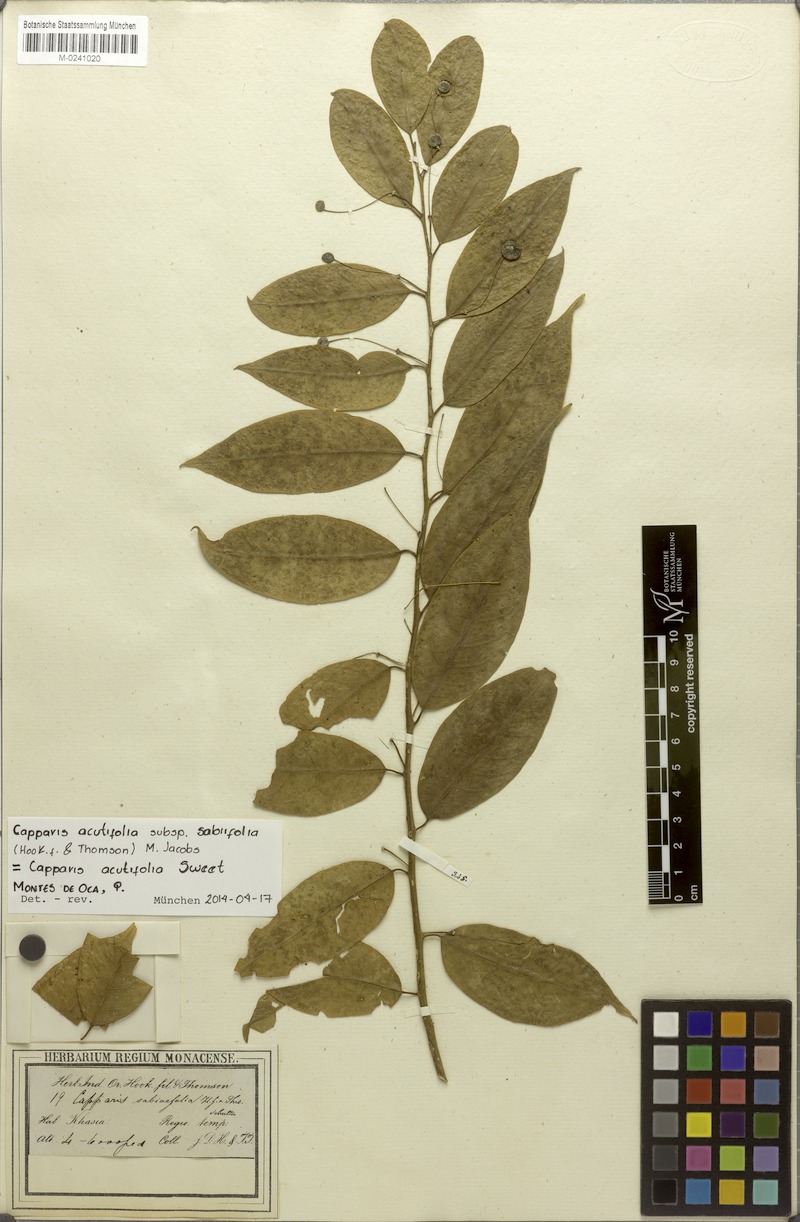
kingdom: Plantae
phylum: Tracheophyta
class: Magnoliopsida
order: Brassicales
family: Capparaceae
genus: Capparis
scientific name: Capparis acutifolia
